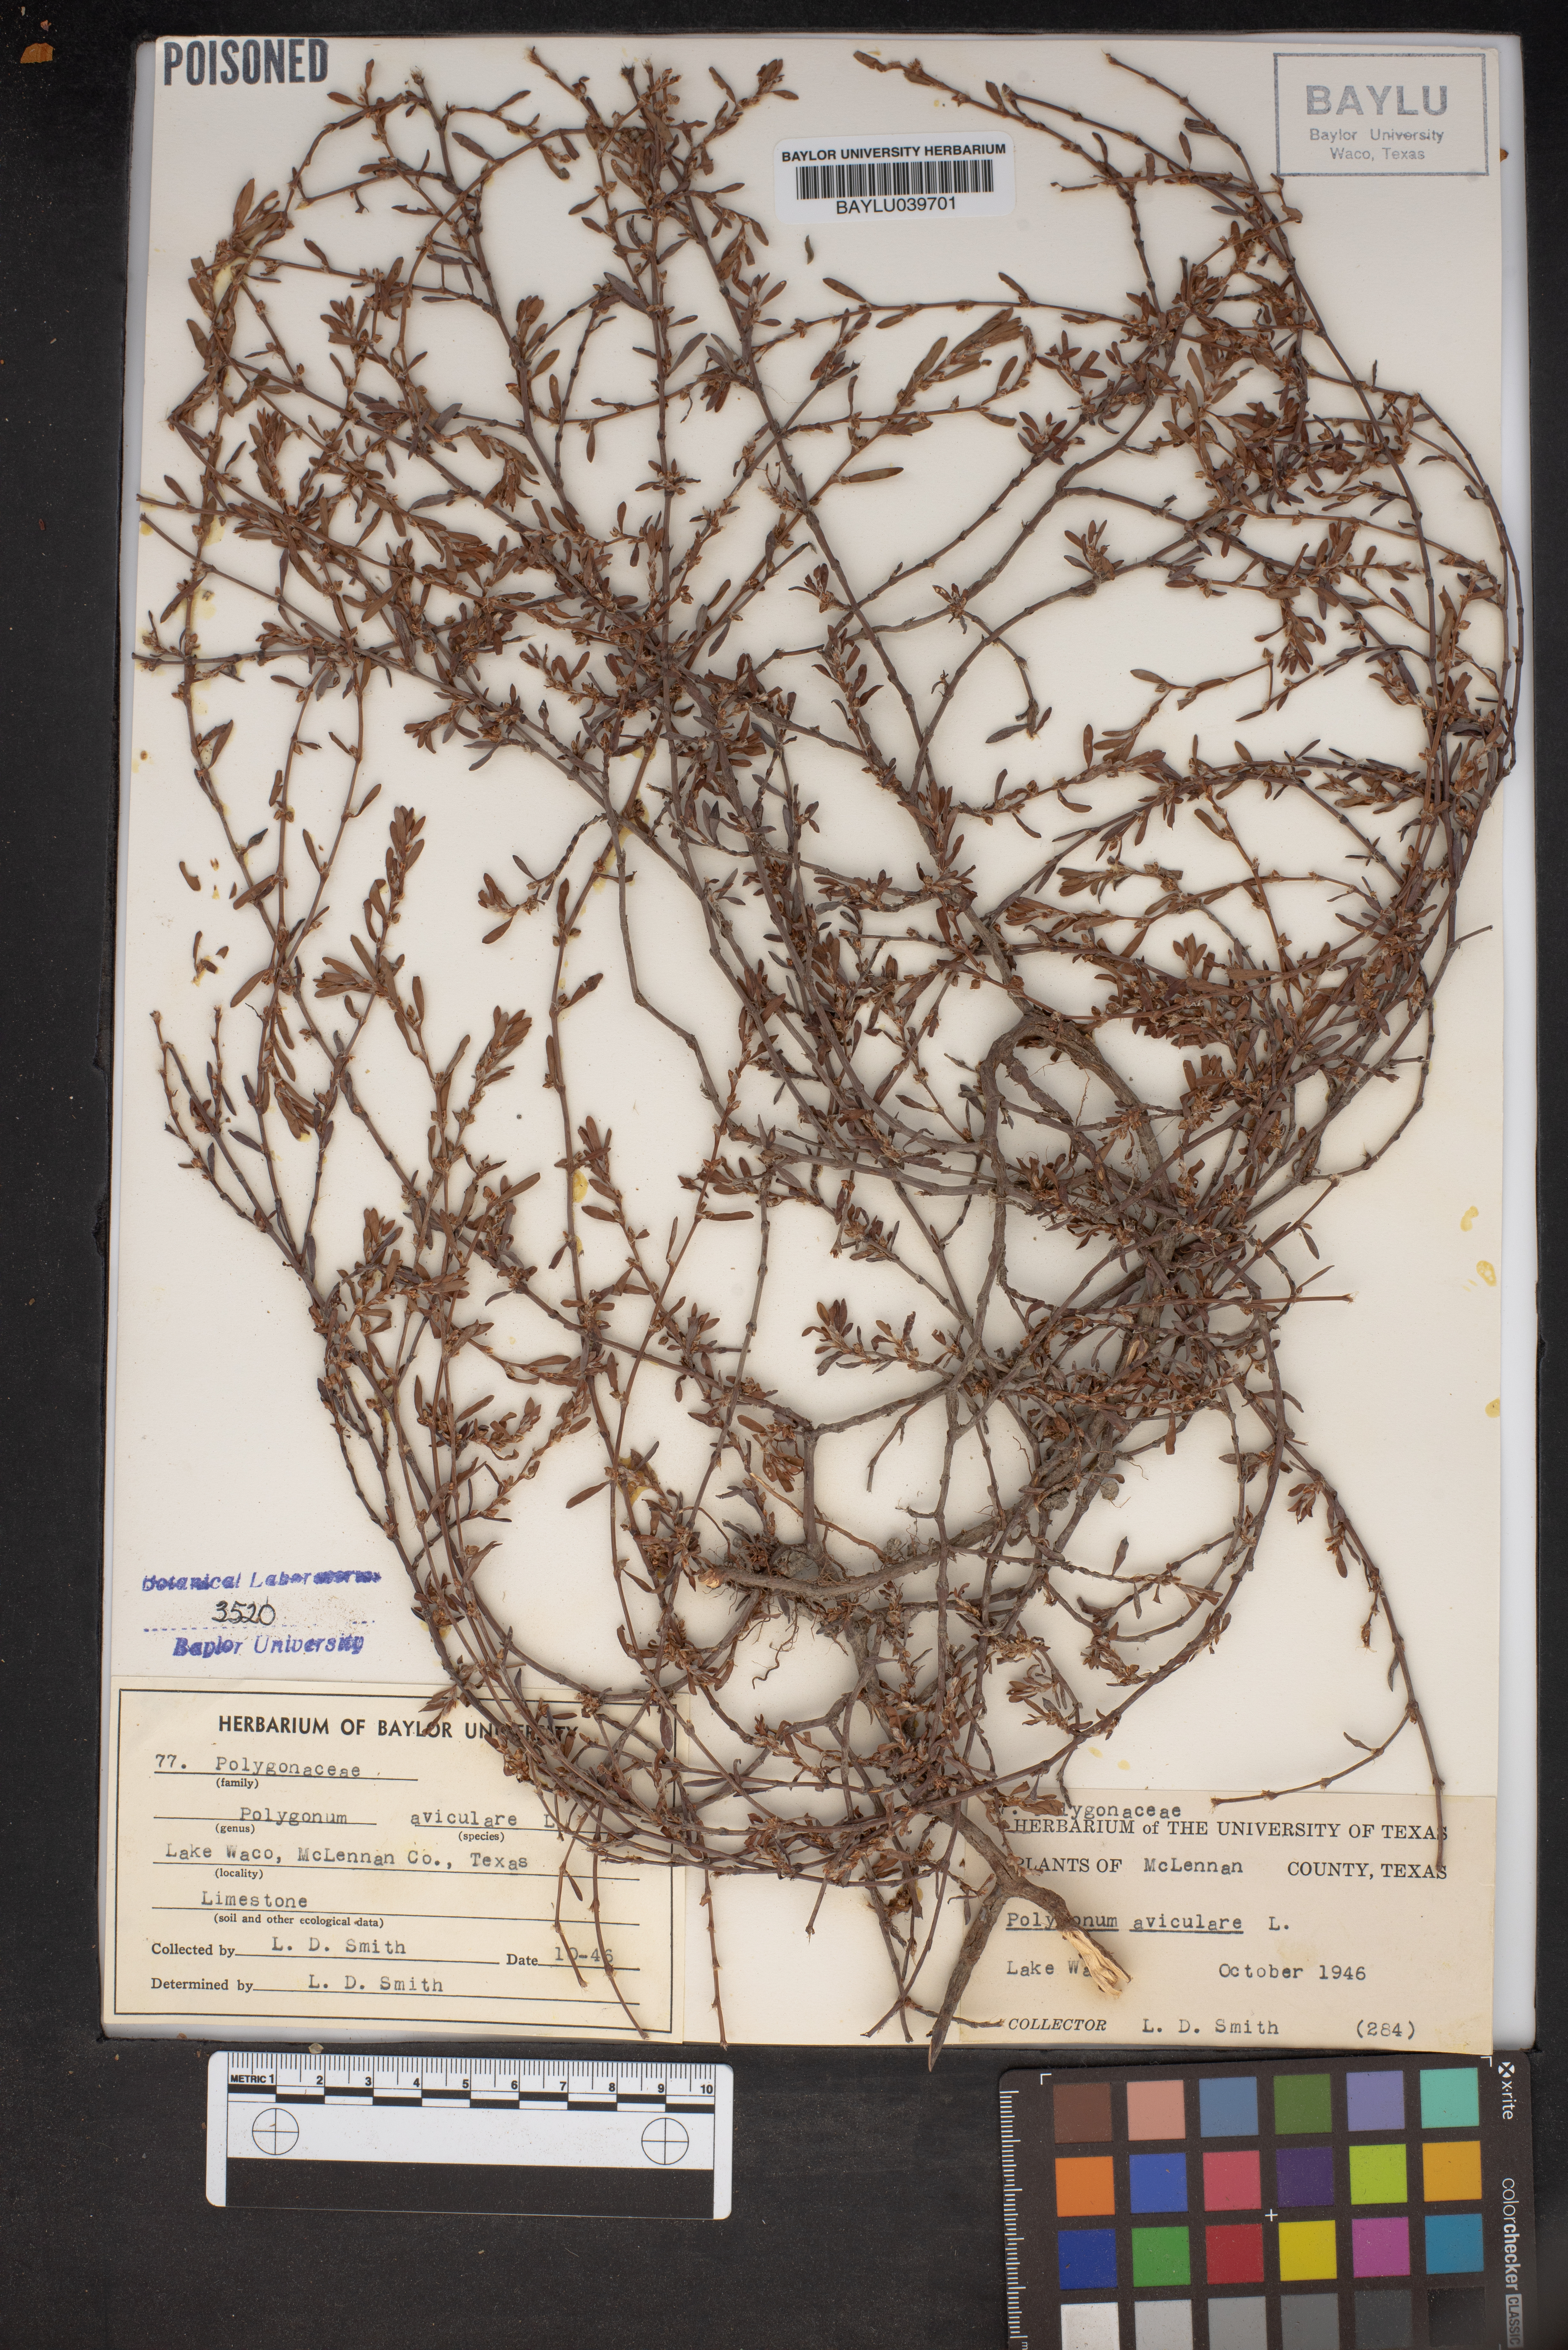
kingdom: Plantae
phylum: Tracheophyta
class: Magnoliopsida
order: Caryophyllales
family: Polygonaceae
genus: Polygonum
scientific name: Polygonum aviculare
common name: Prostrate knotweed
